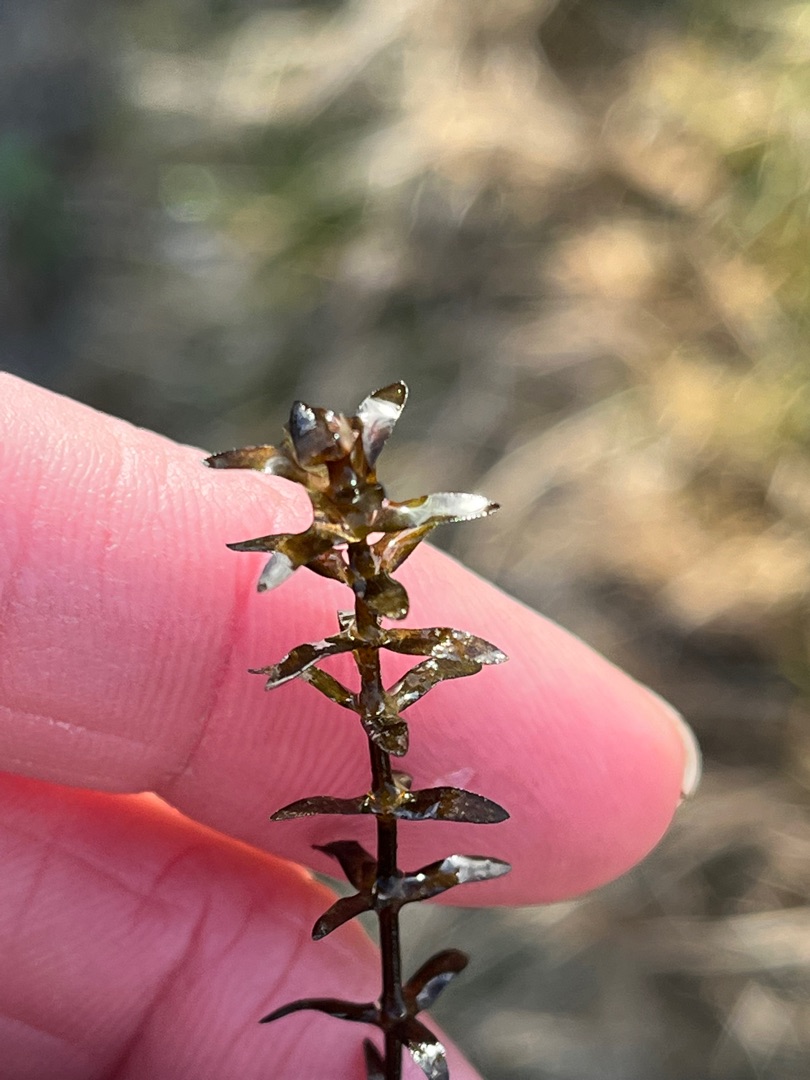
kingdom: Plantae
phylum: Tracheophyta
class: Liliopsida
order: Alismatales
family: Hydrocharitaceae
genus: Elodea
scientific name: Elodea nuttallii
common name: Smalbladet vandpest
